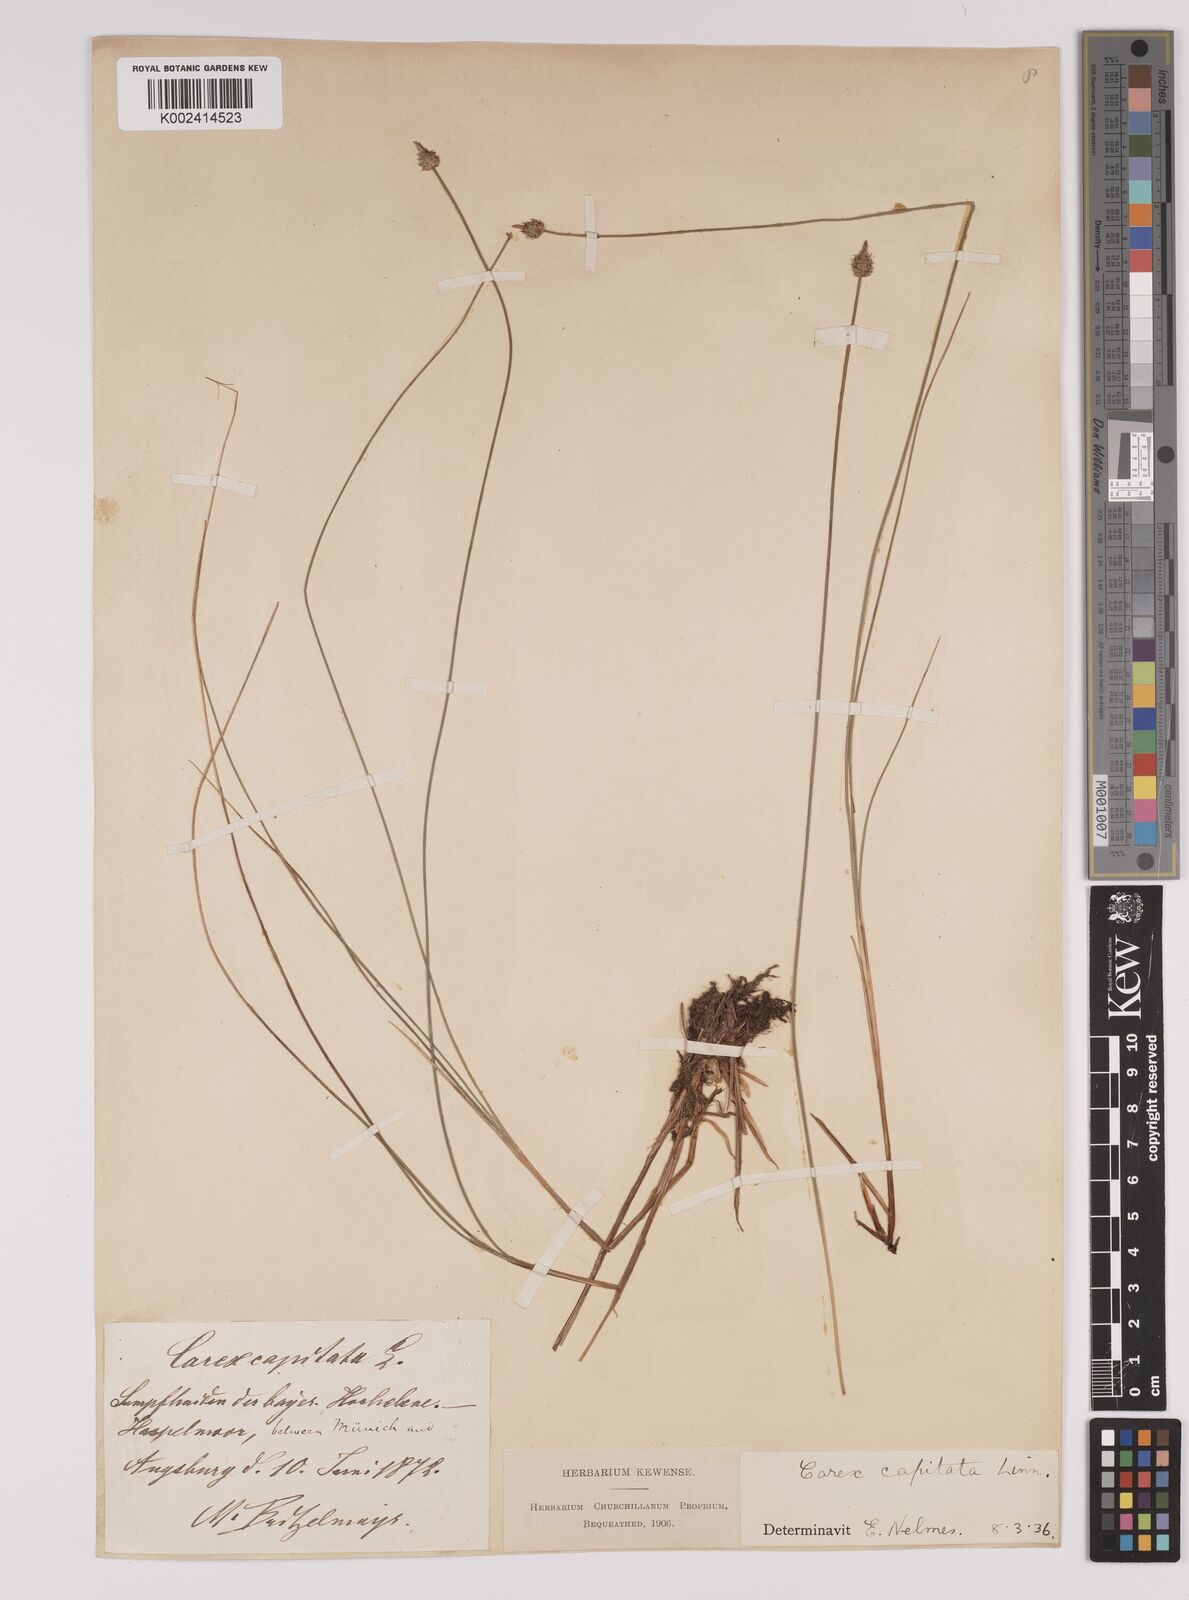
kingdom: Plantae
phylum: Tracheophyta
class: Liliopsida
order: Poales
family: Cyperaceae
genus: Carex
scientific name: Carex capitata
